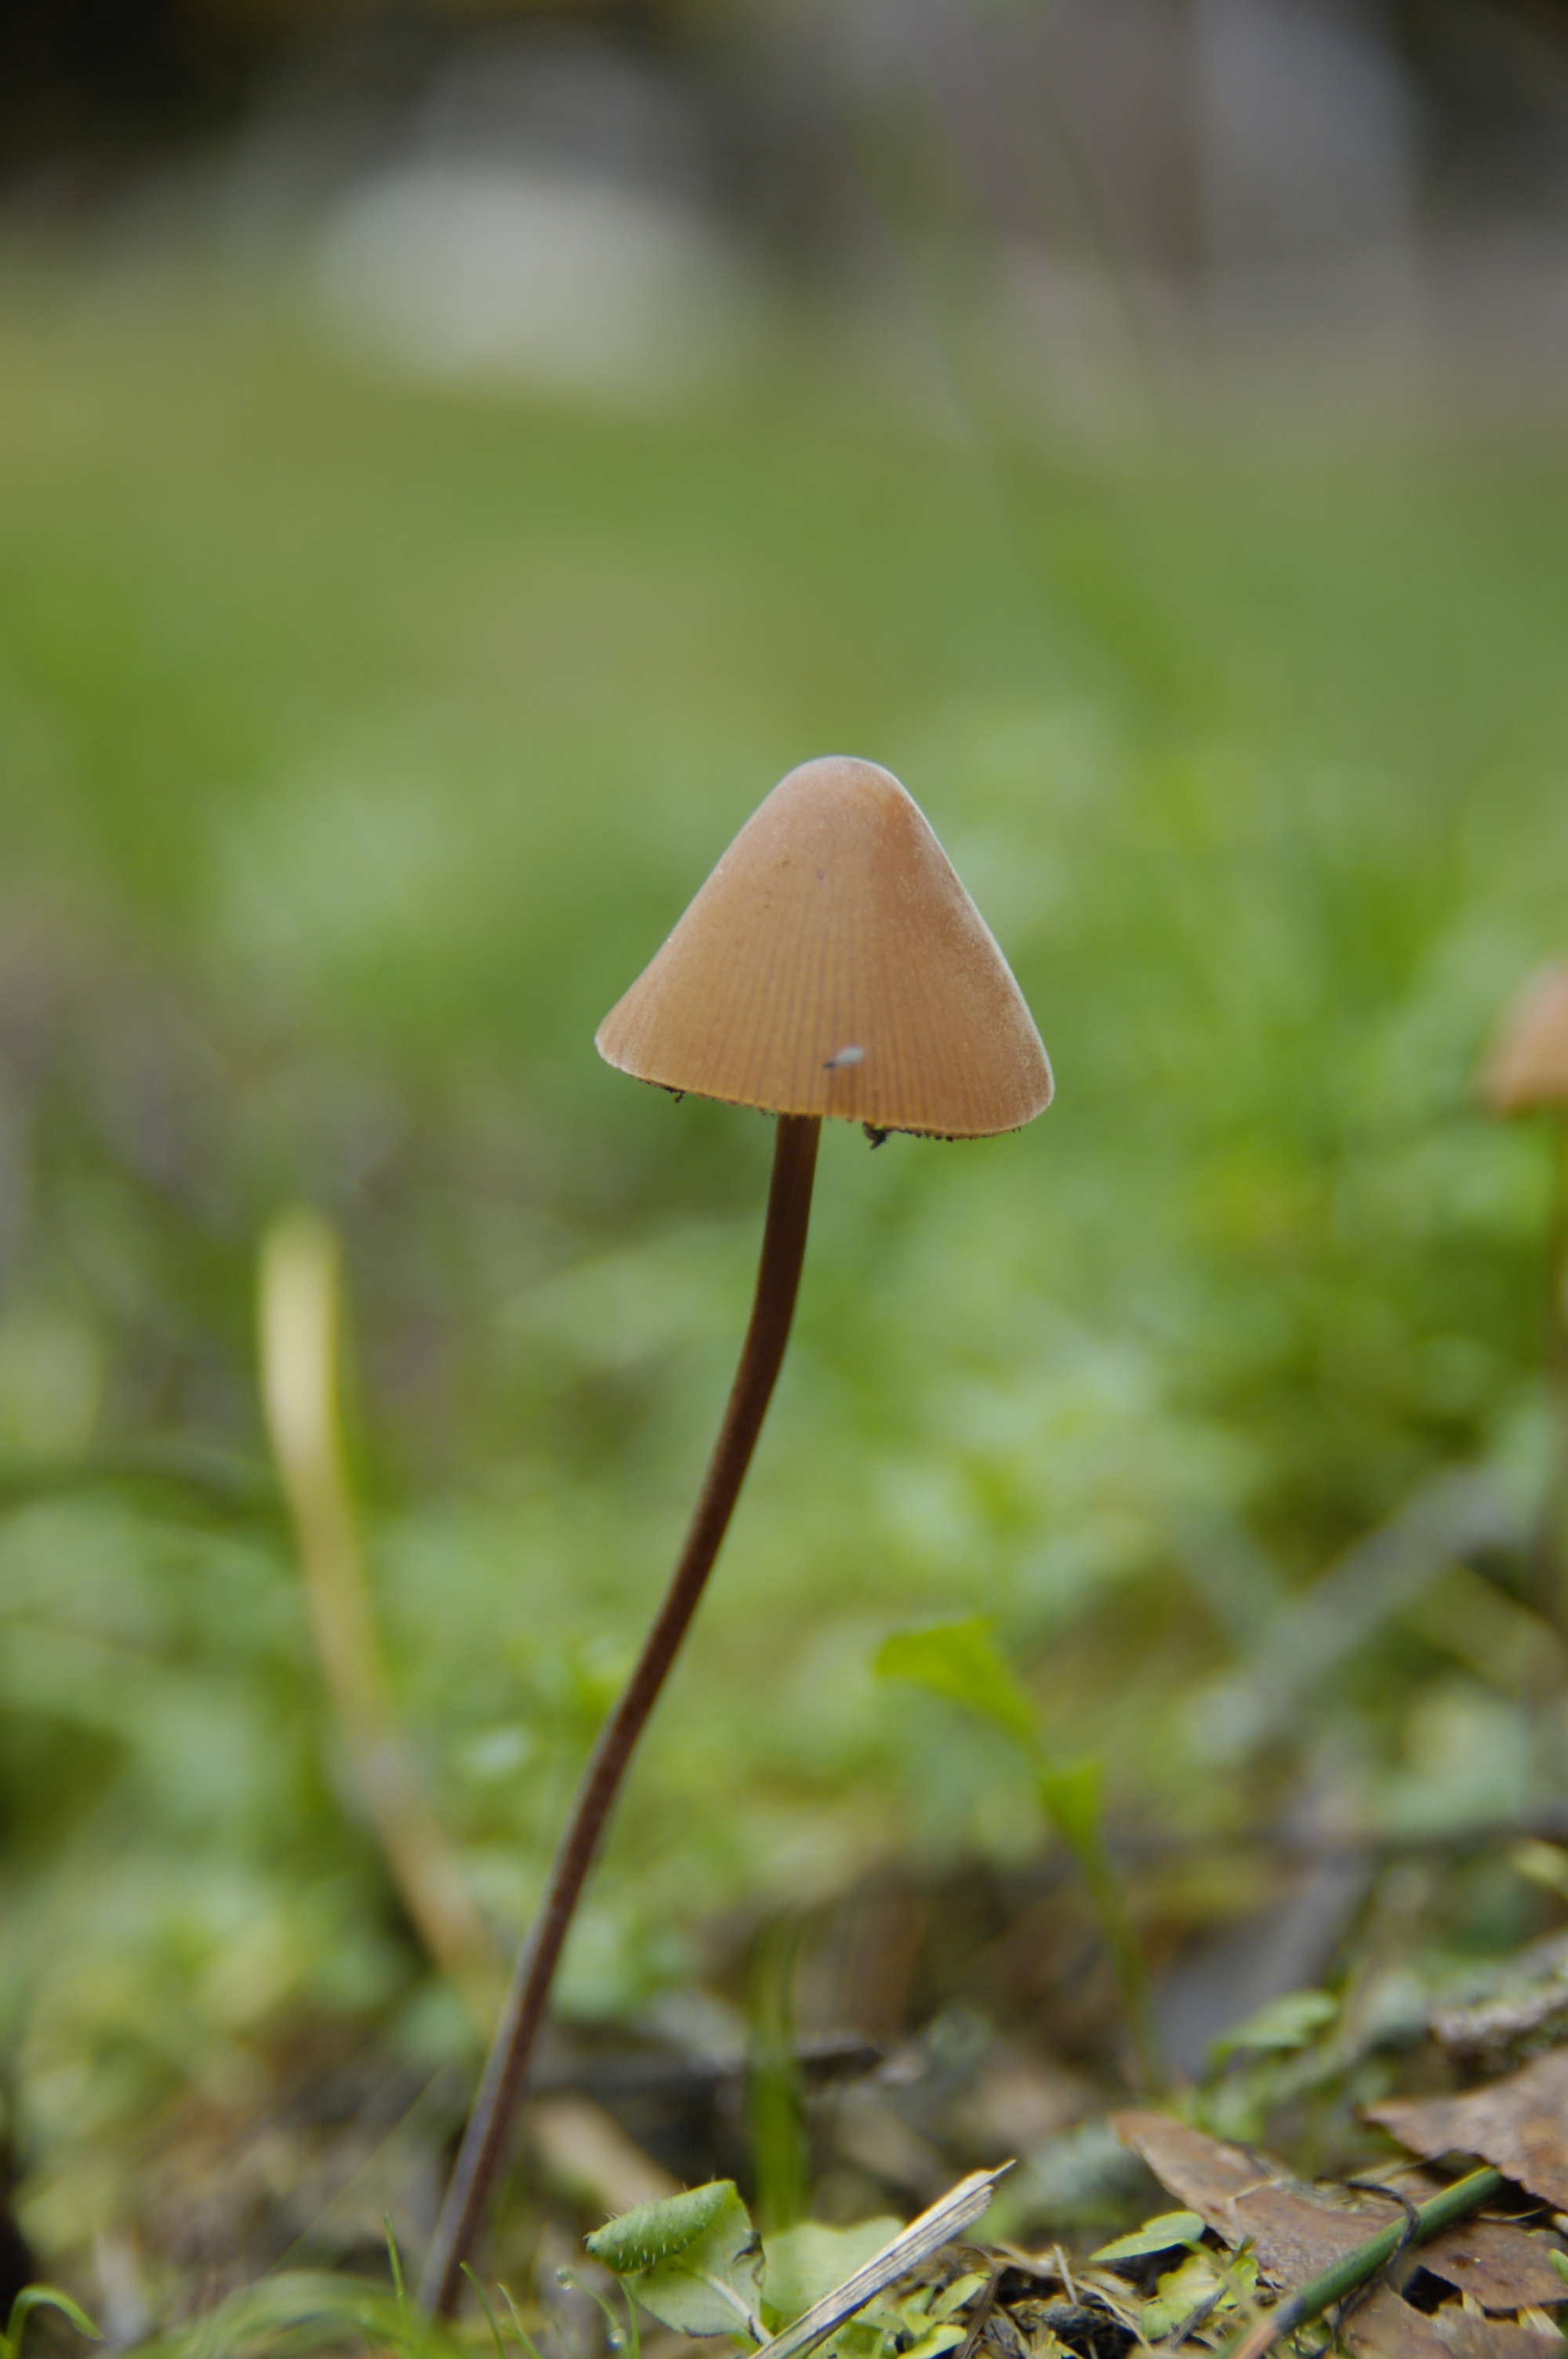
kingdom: Fungi
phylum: Basidiomycota
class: Agaricomycetes
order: Agaricales
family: Bolbitiaceae
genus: Conocybe
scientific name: Conocybe
